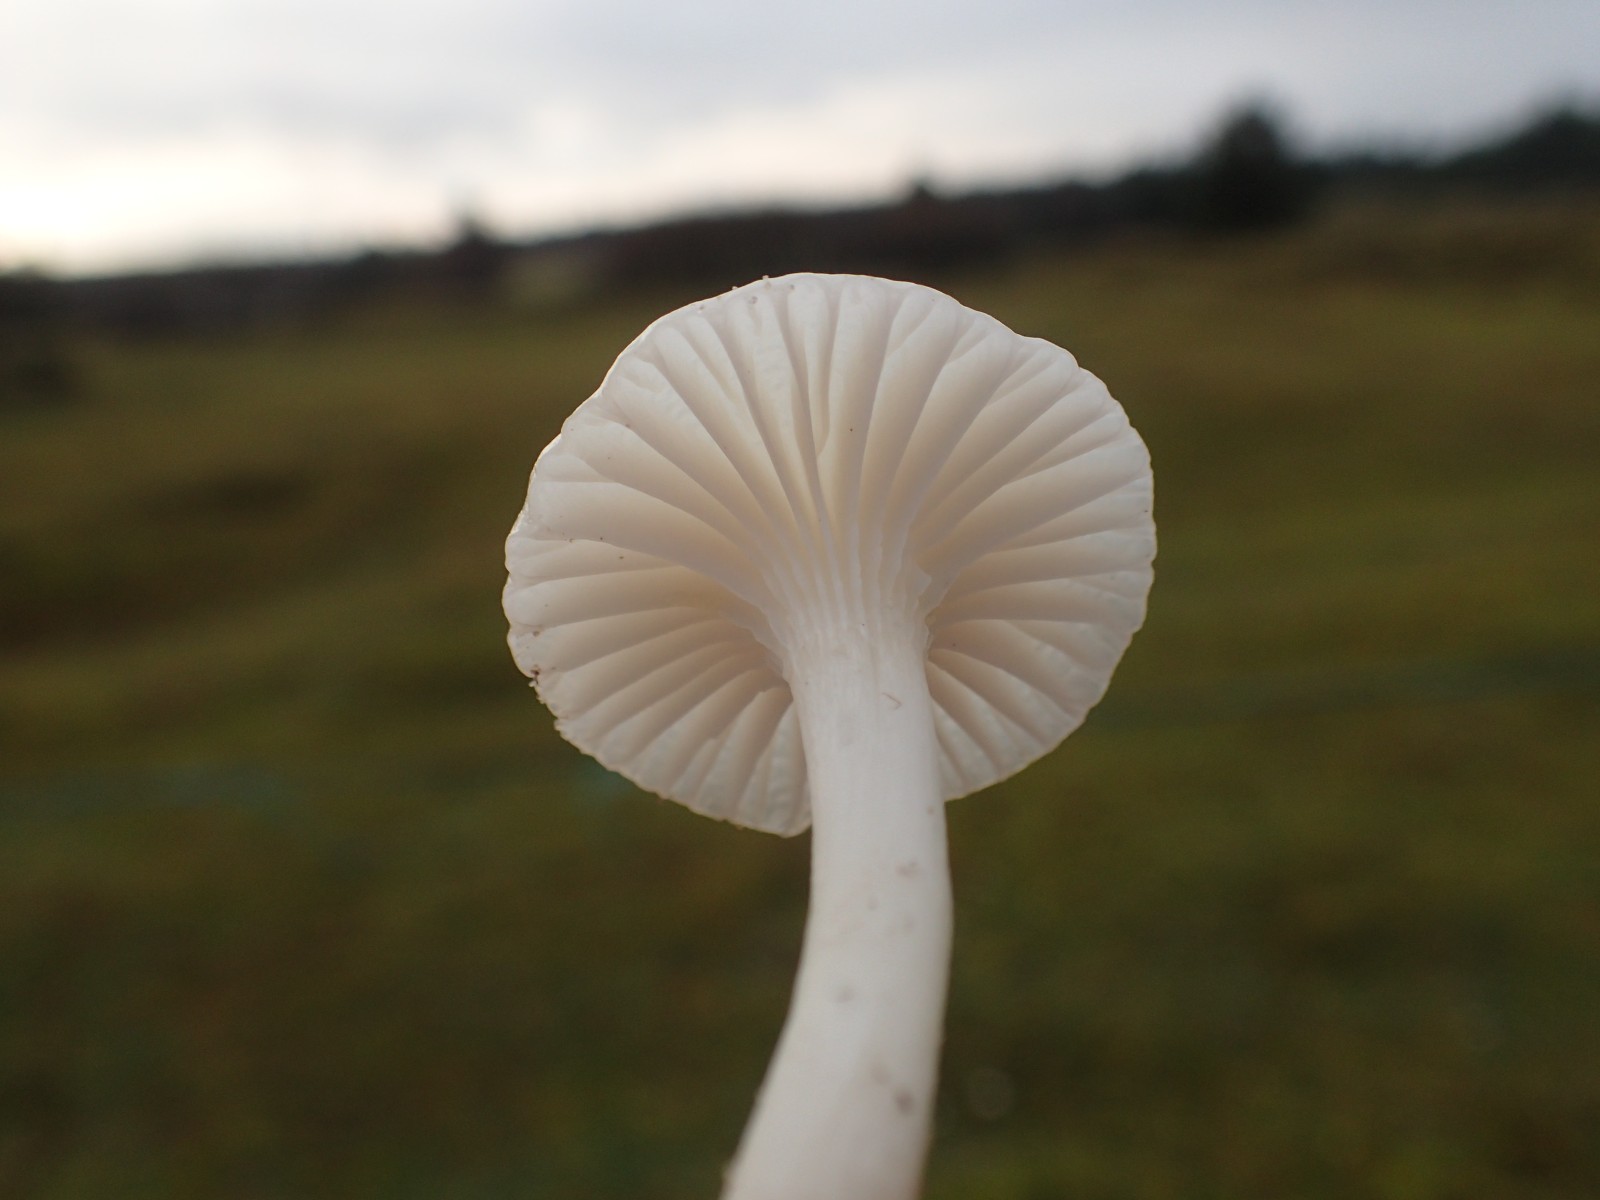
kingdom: Fungi
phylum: Basidiomycota
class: Agaricomycetes
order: Agaricales
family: Hygrophoraceae
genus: Cuphophyllus
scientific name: Cuphophyllus virgineus
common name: snehvid vokshat
